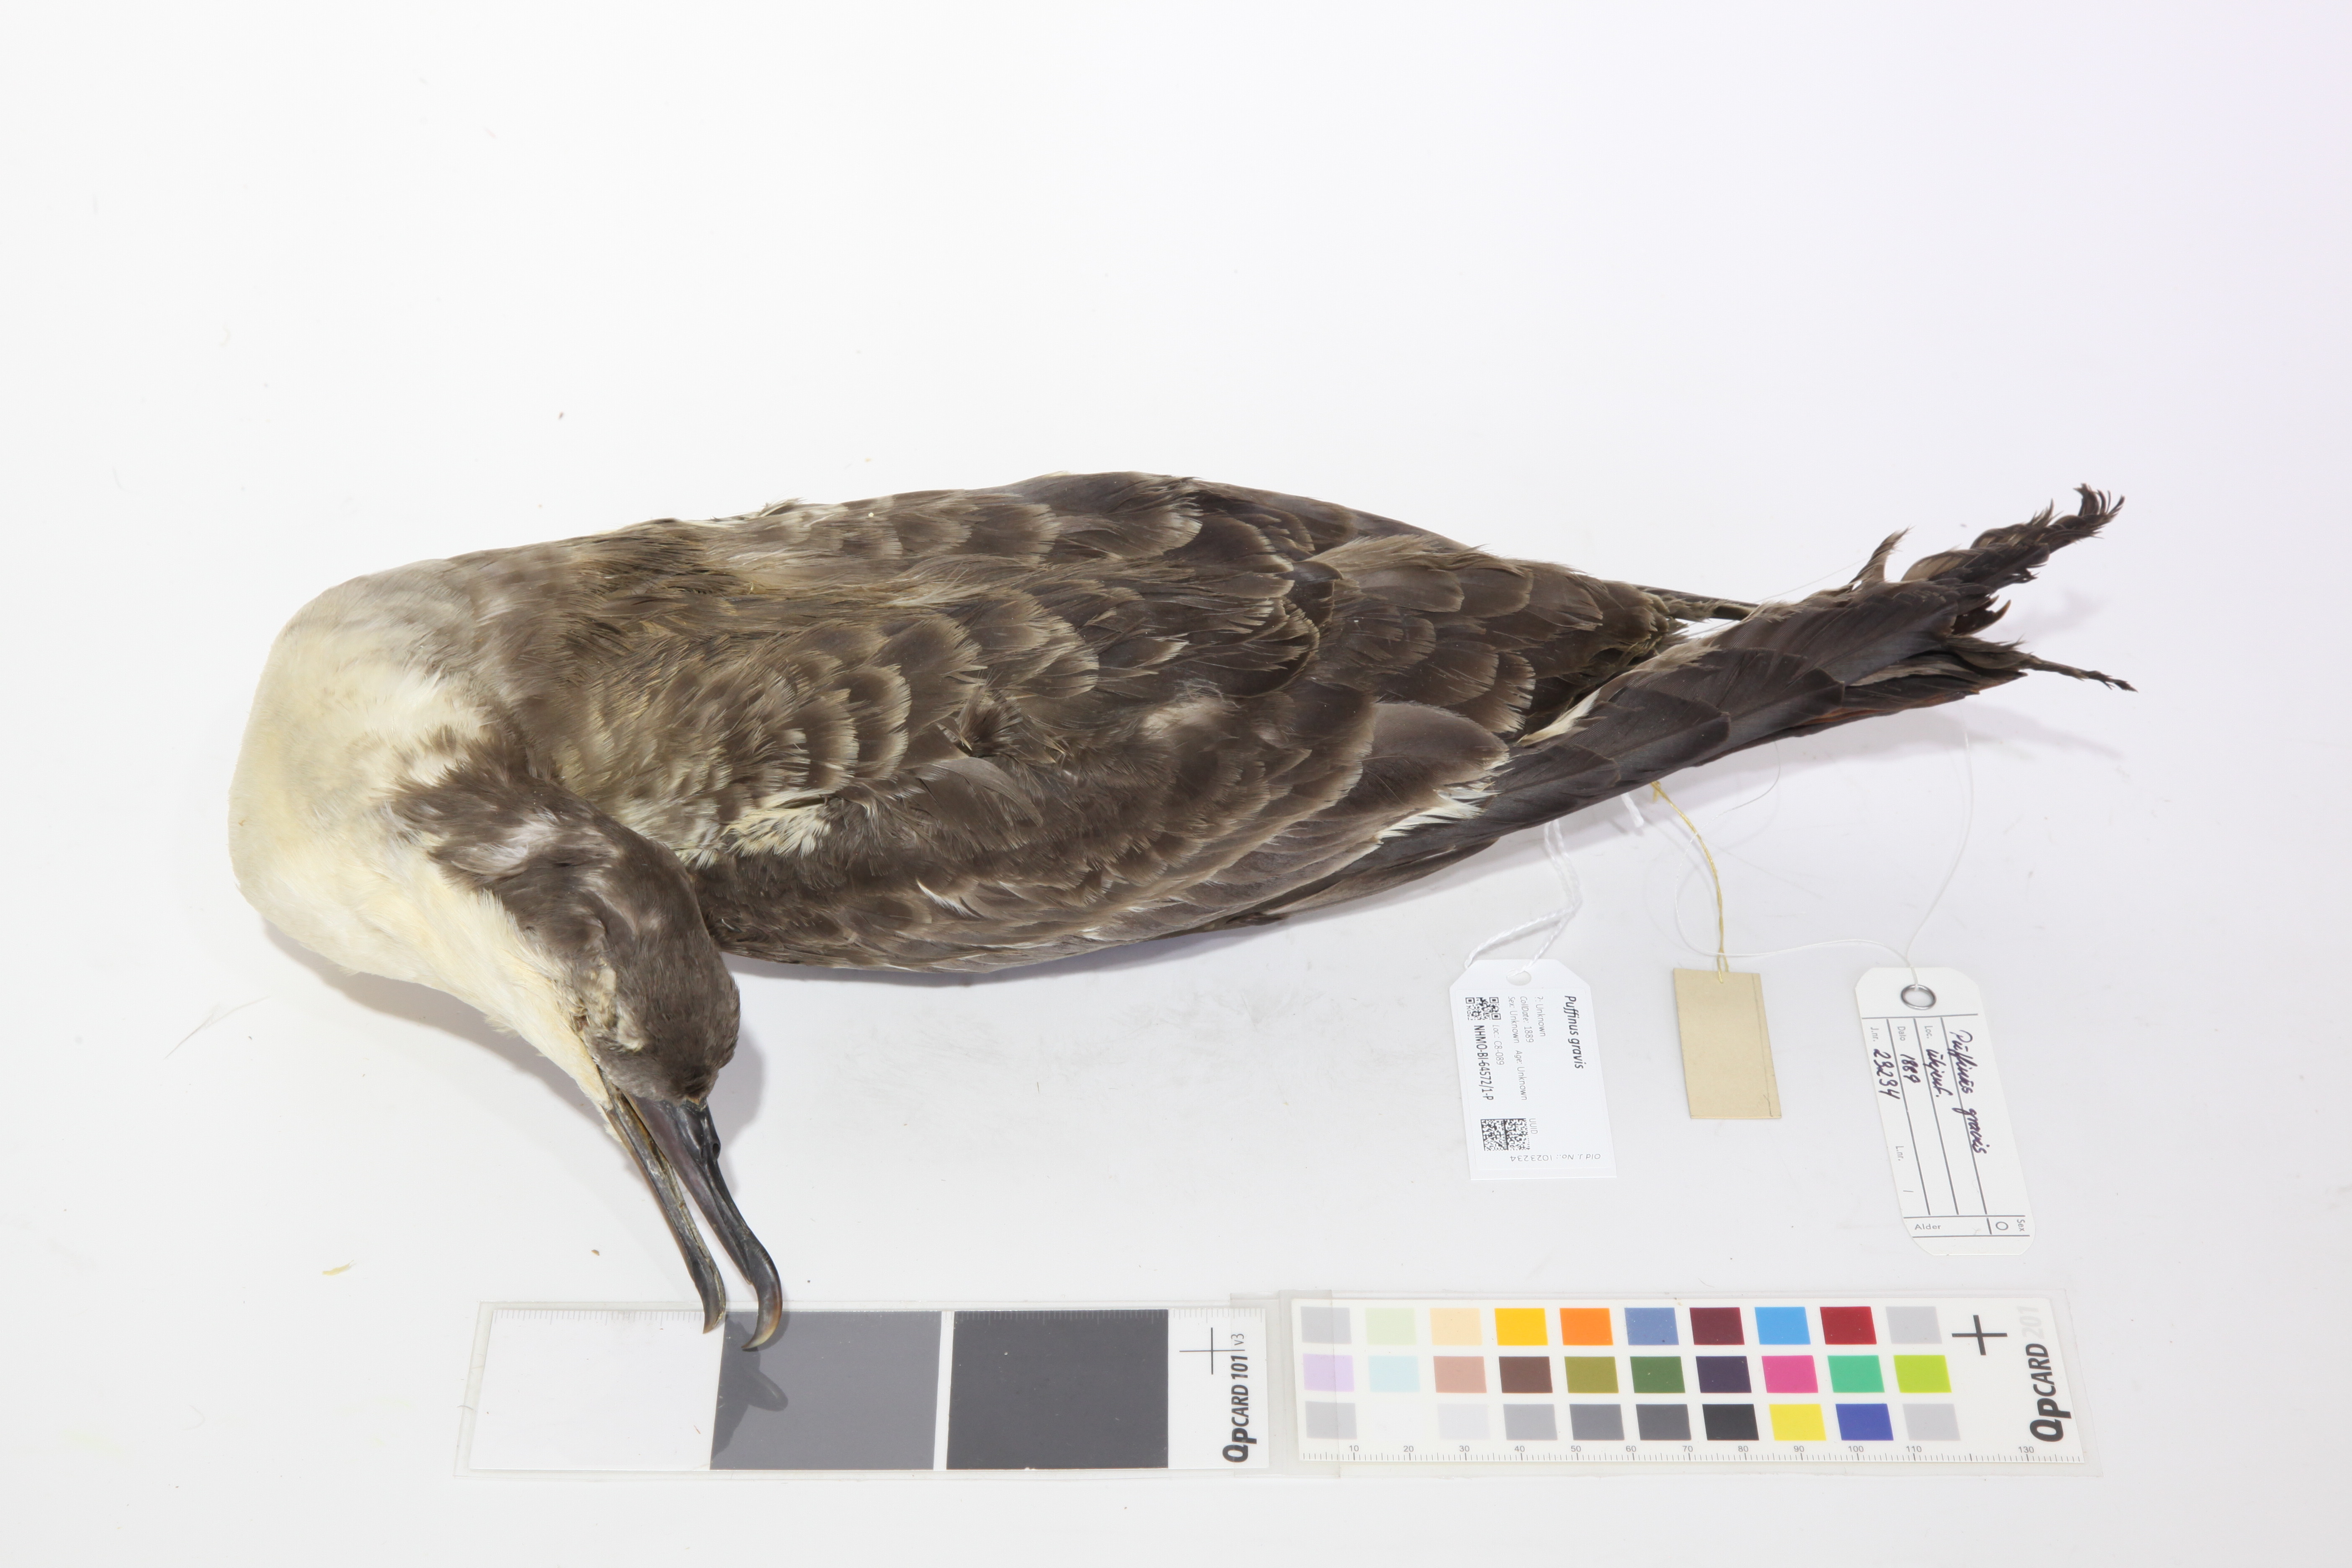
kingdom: Animalia
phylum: Chordata
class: Aves
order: Procellariiformes
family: Procellariidae
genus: Puffinus
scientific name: Puffinus gravis
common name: Great shearwater
